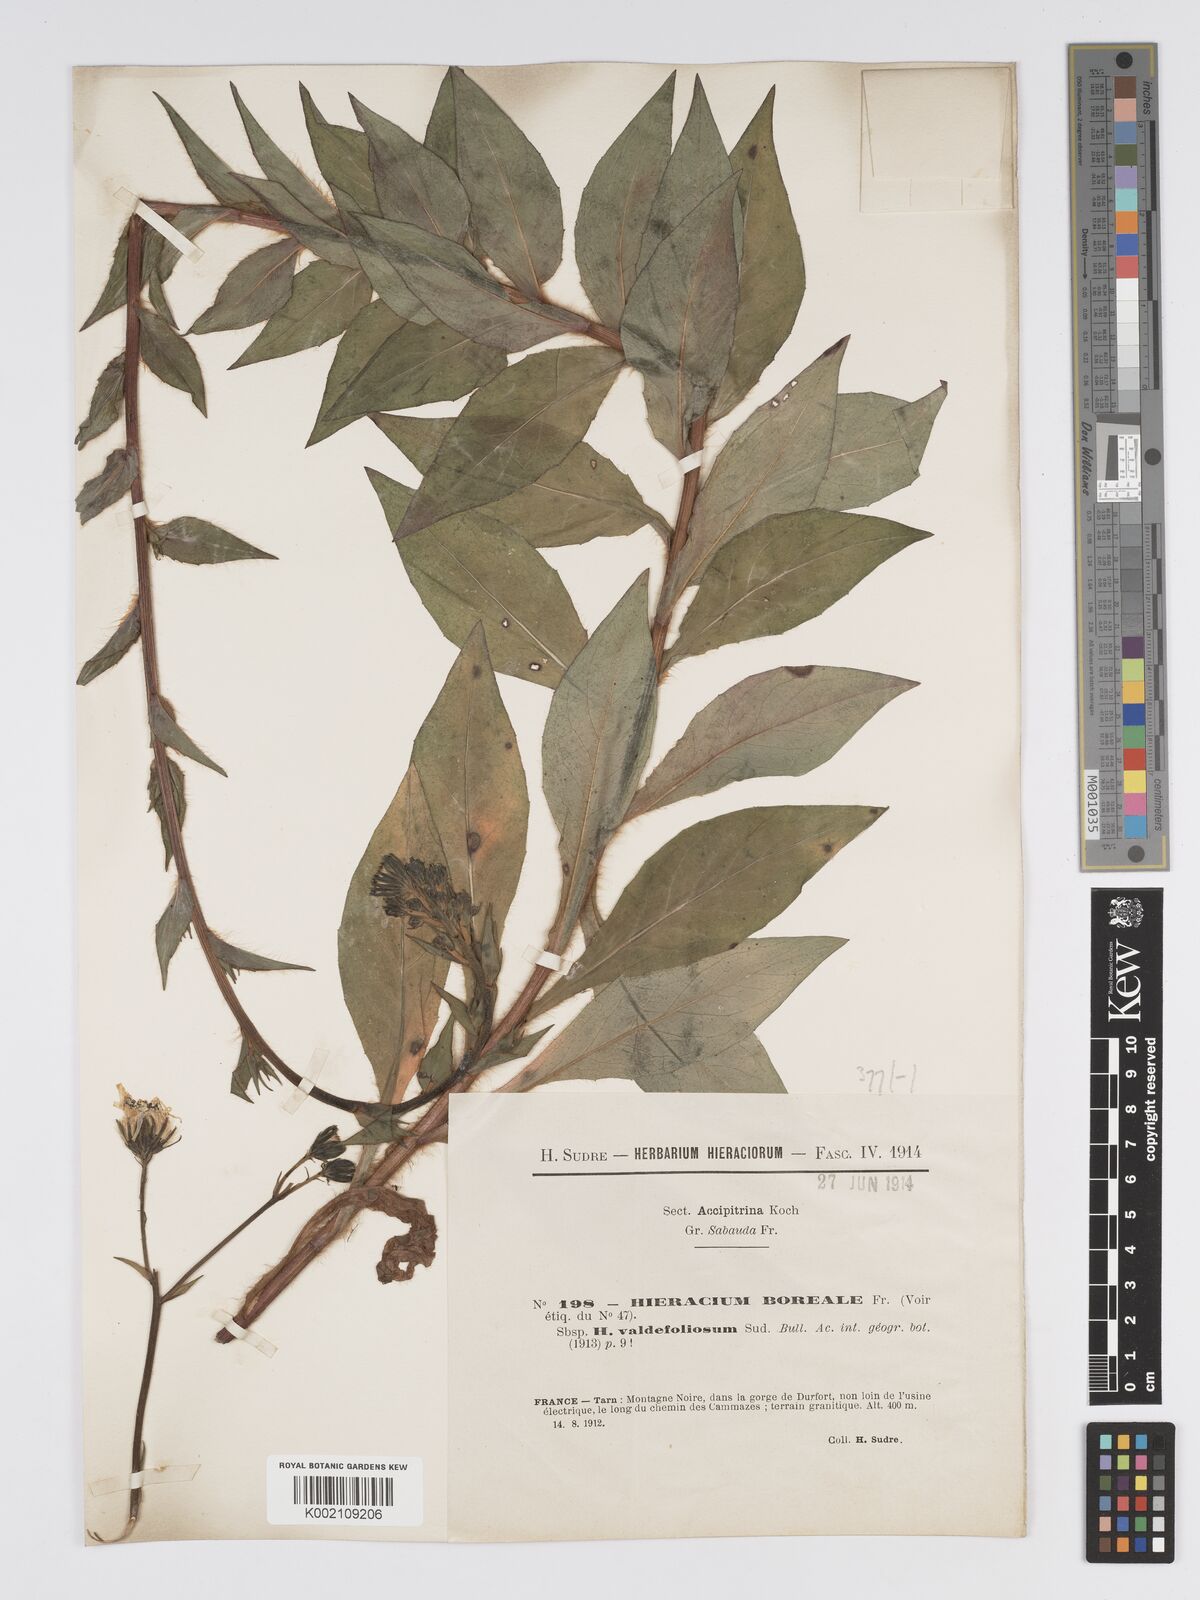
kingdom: Plantae
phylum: Tracheophyta
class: Magnoliopsida
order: Asterales
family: Asteraceae
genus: Hieracium
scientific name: Hieracium sabaudum
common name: New england hawkweed
